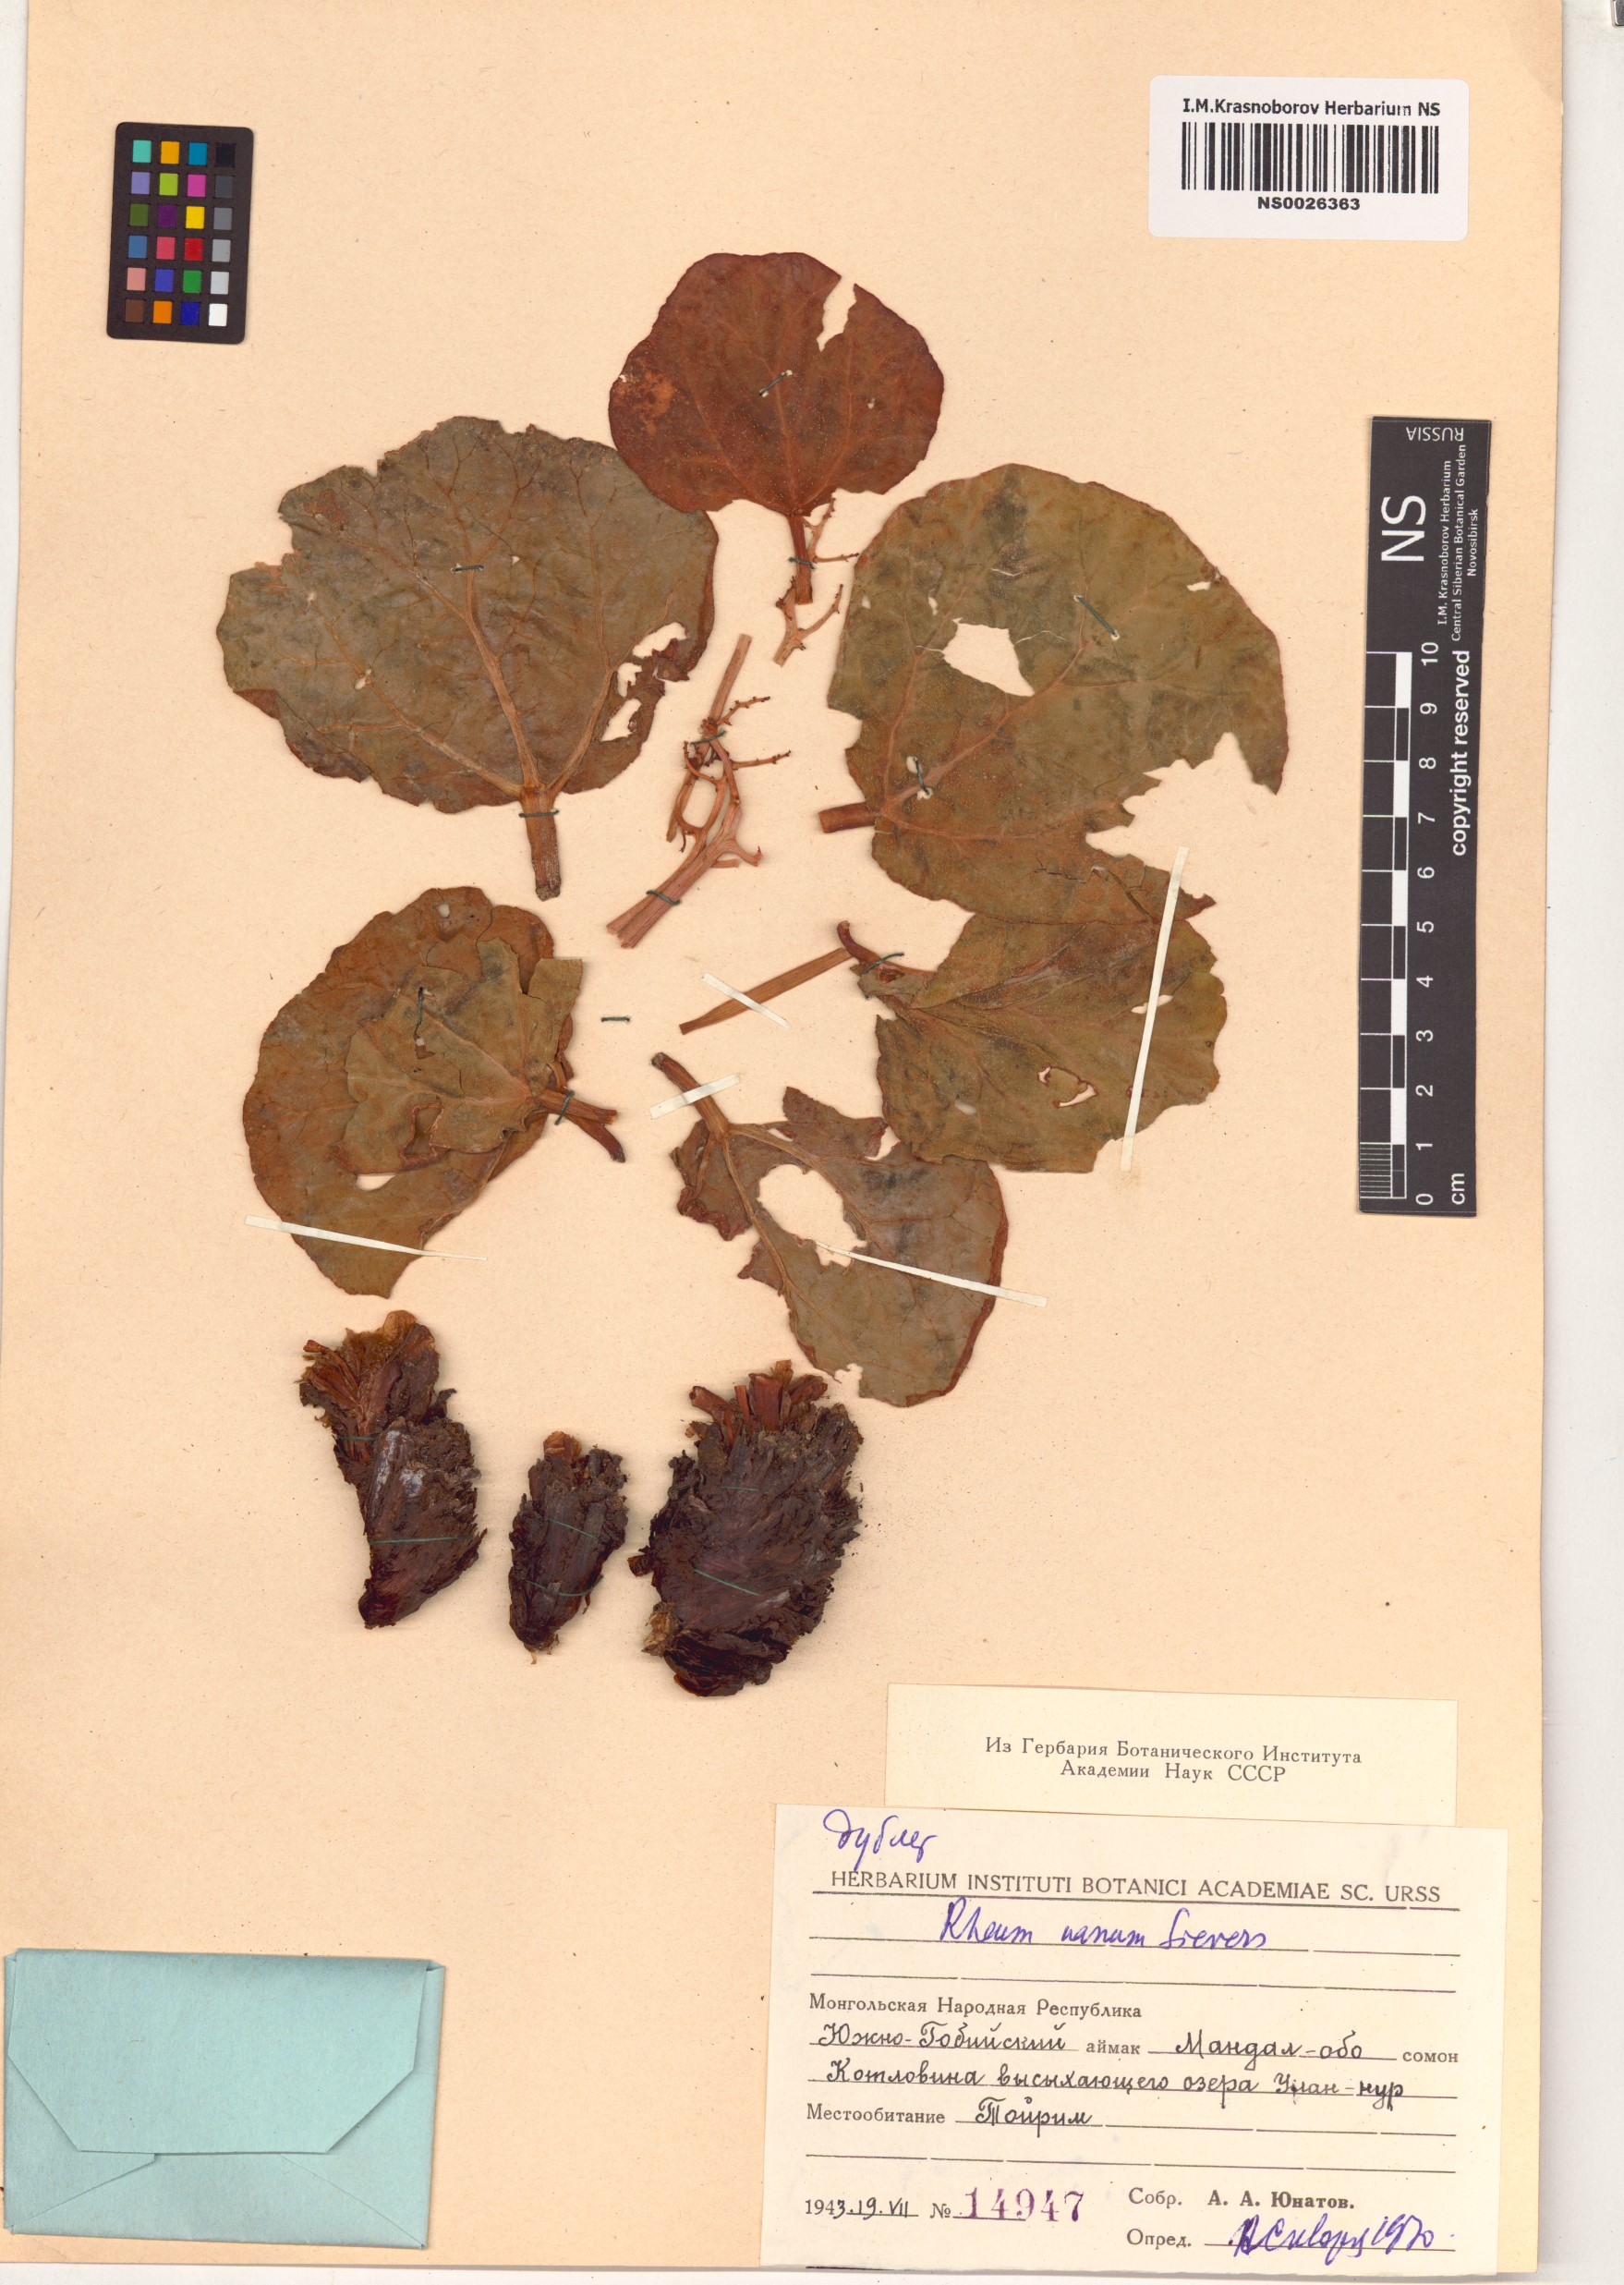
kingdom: Plantae
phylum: Tracheophyta
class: Magnoliopsida
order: Caryophyllales
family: Polygonaceae
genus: Rheum
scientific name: Rheum nanum
